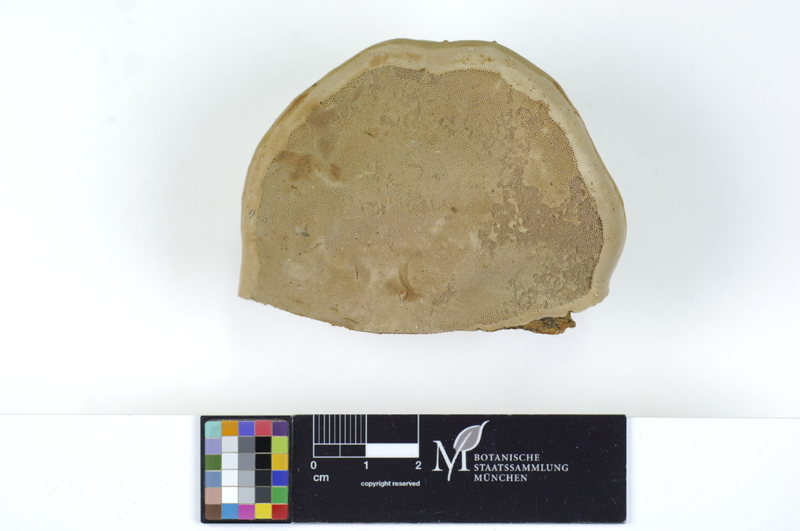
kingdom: Fungi
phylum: Basidiomycota
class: Agaricomycetes
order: Polyporales
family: Polyporaceae
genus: Fomes
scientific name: Fomes fomentarius
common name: Hoof fungus
